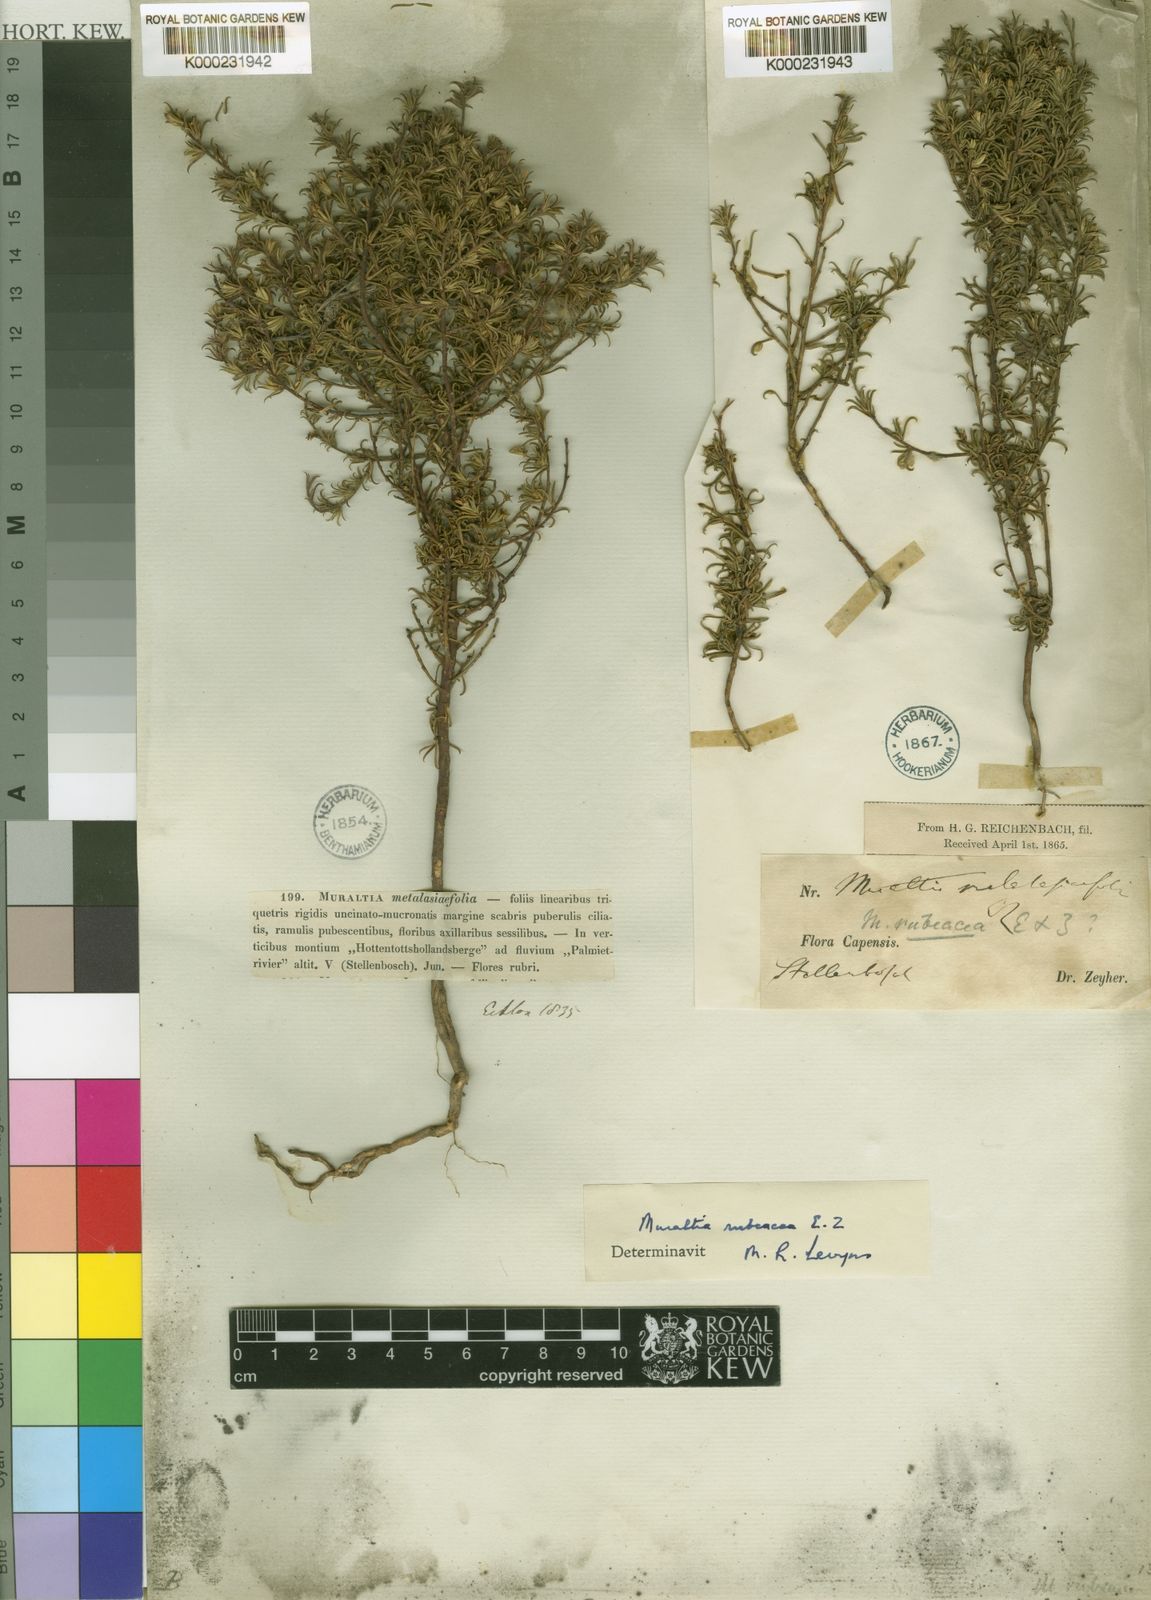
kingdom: Plantae
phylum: Tracheophyta
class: Magnoliopsida
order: Fabales
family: Polygalaceae
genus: Muraltia
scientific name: Muraltia rubeacea
